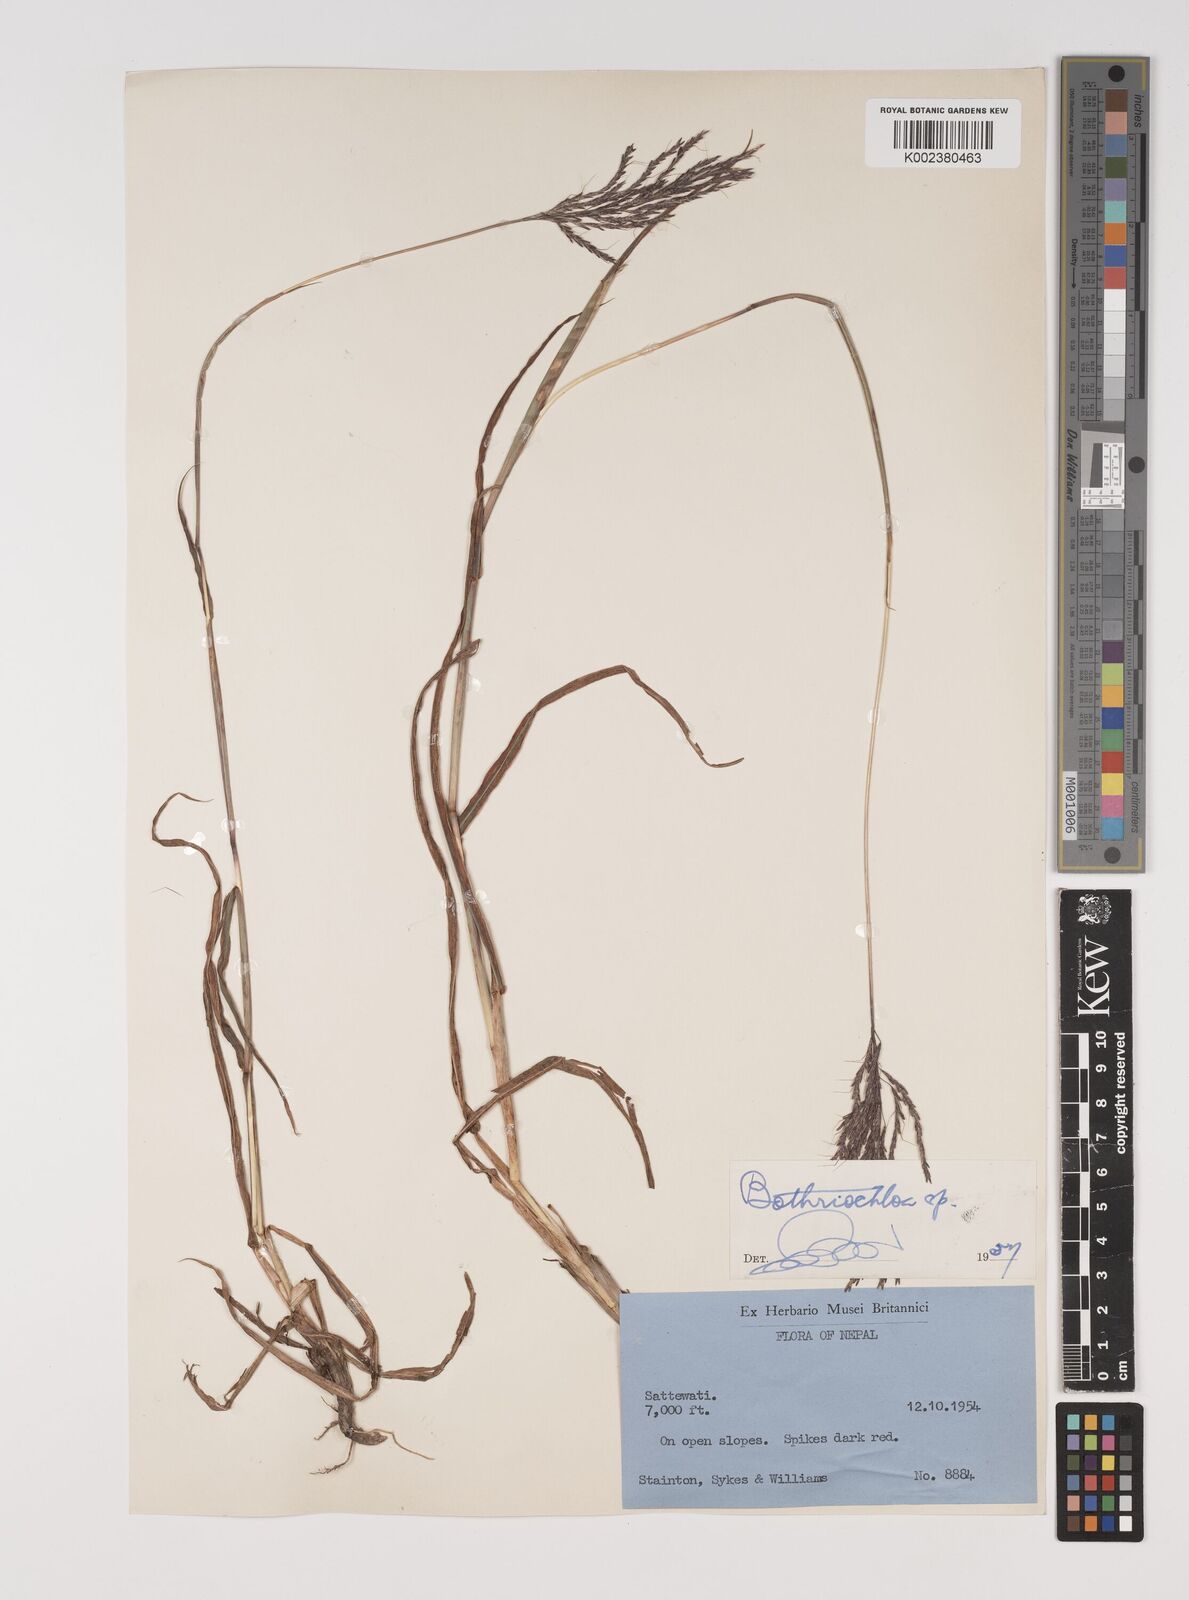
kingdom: Plantae
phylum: Tracheophyta
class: Liliopsida
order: Poales
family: Poaceae
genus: Bothriochloa
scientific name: Bothriochloa insculpta
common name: Creeping-bluegrass
